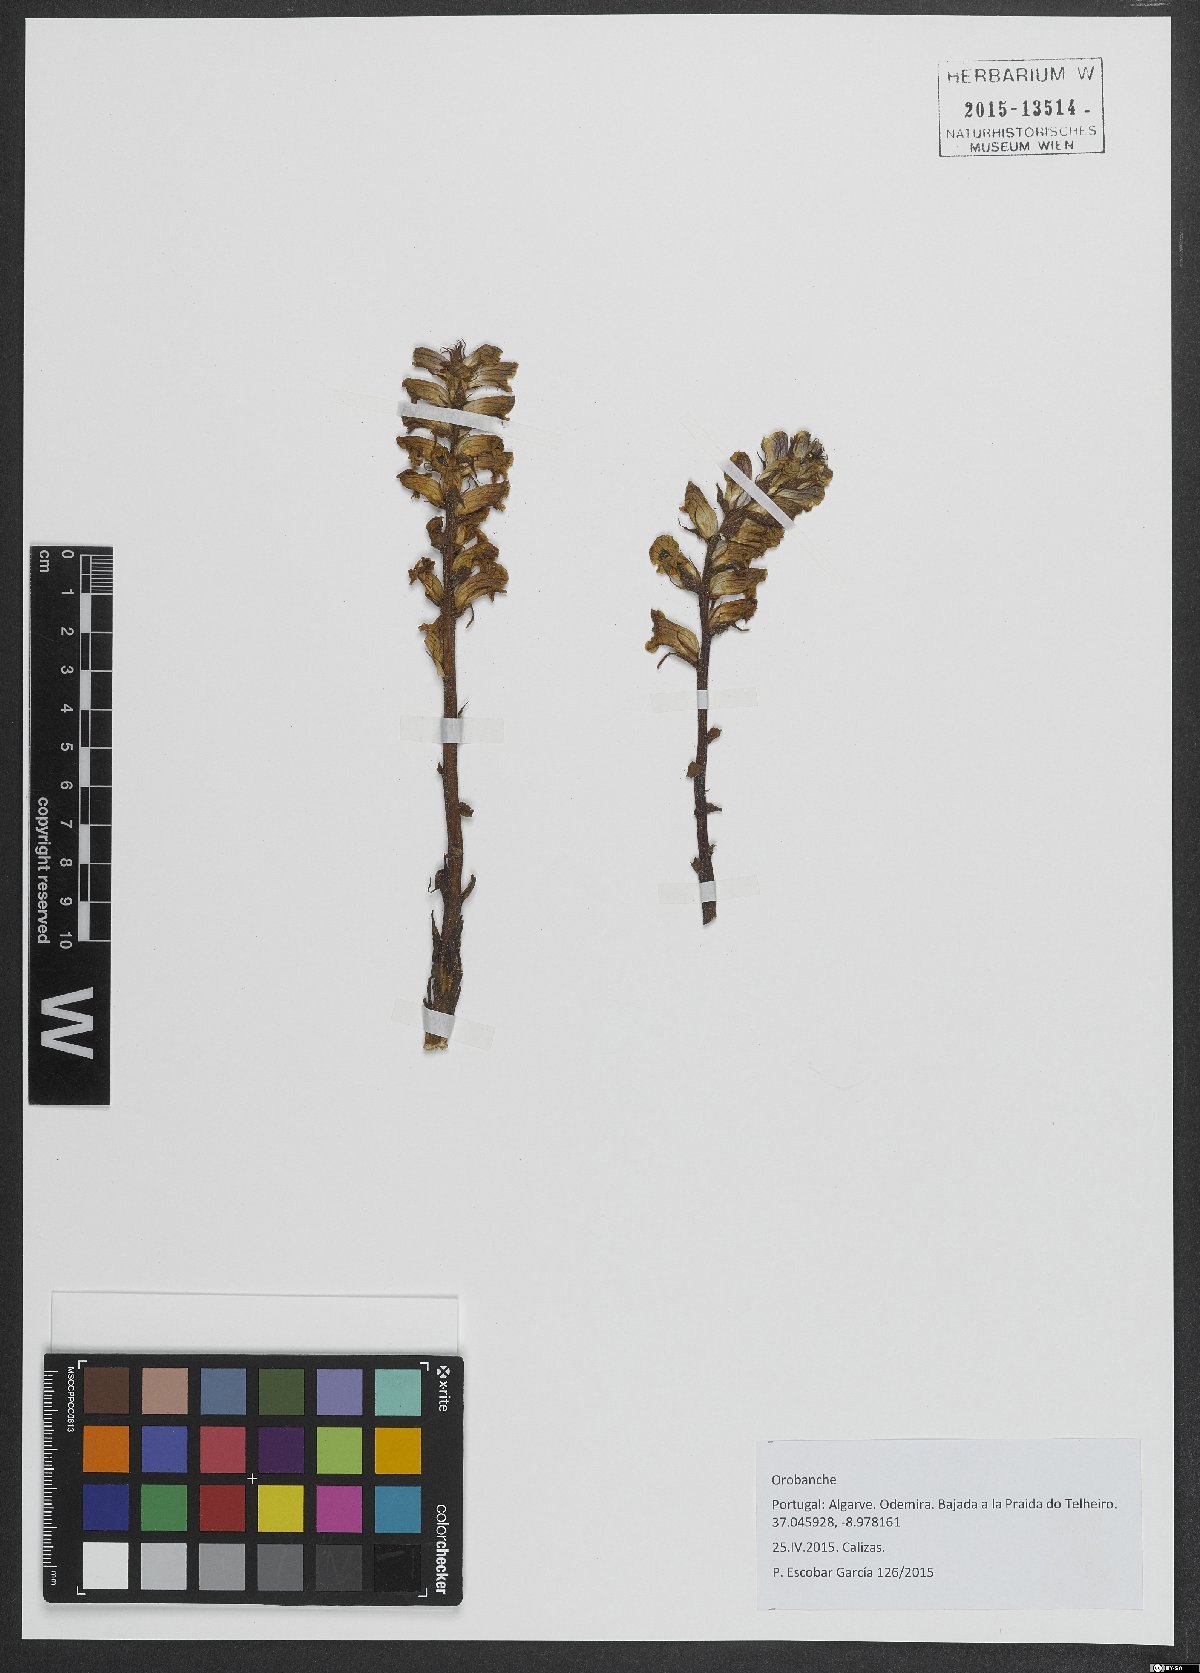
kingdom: Plantae
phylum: Tracheophyta
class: Magnoliopsida
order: Lamiales
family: Orobanchaceae
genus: Orobanche
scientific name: Orobanche
